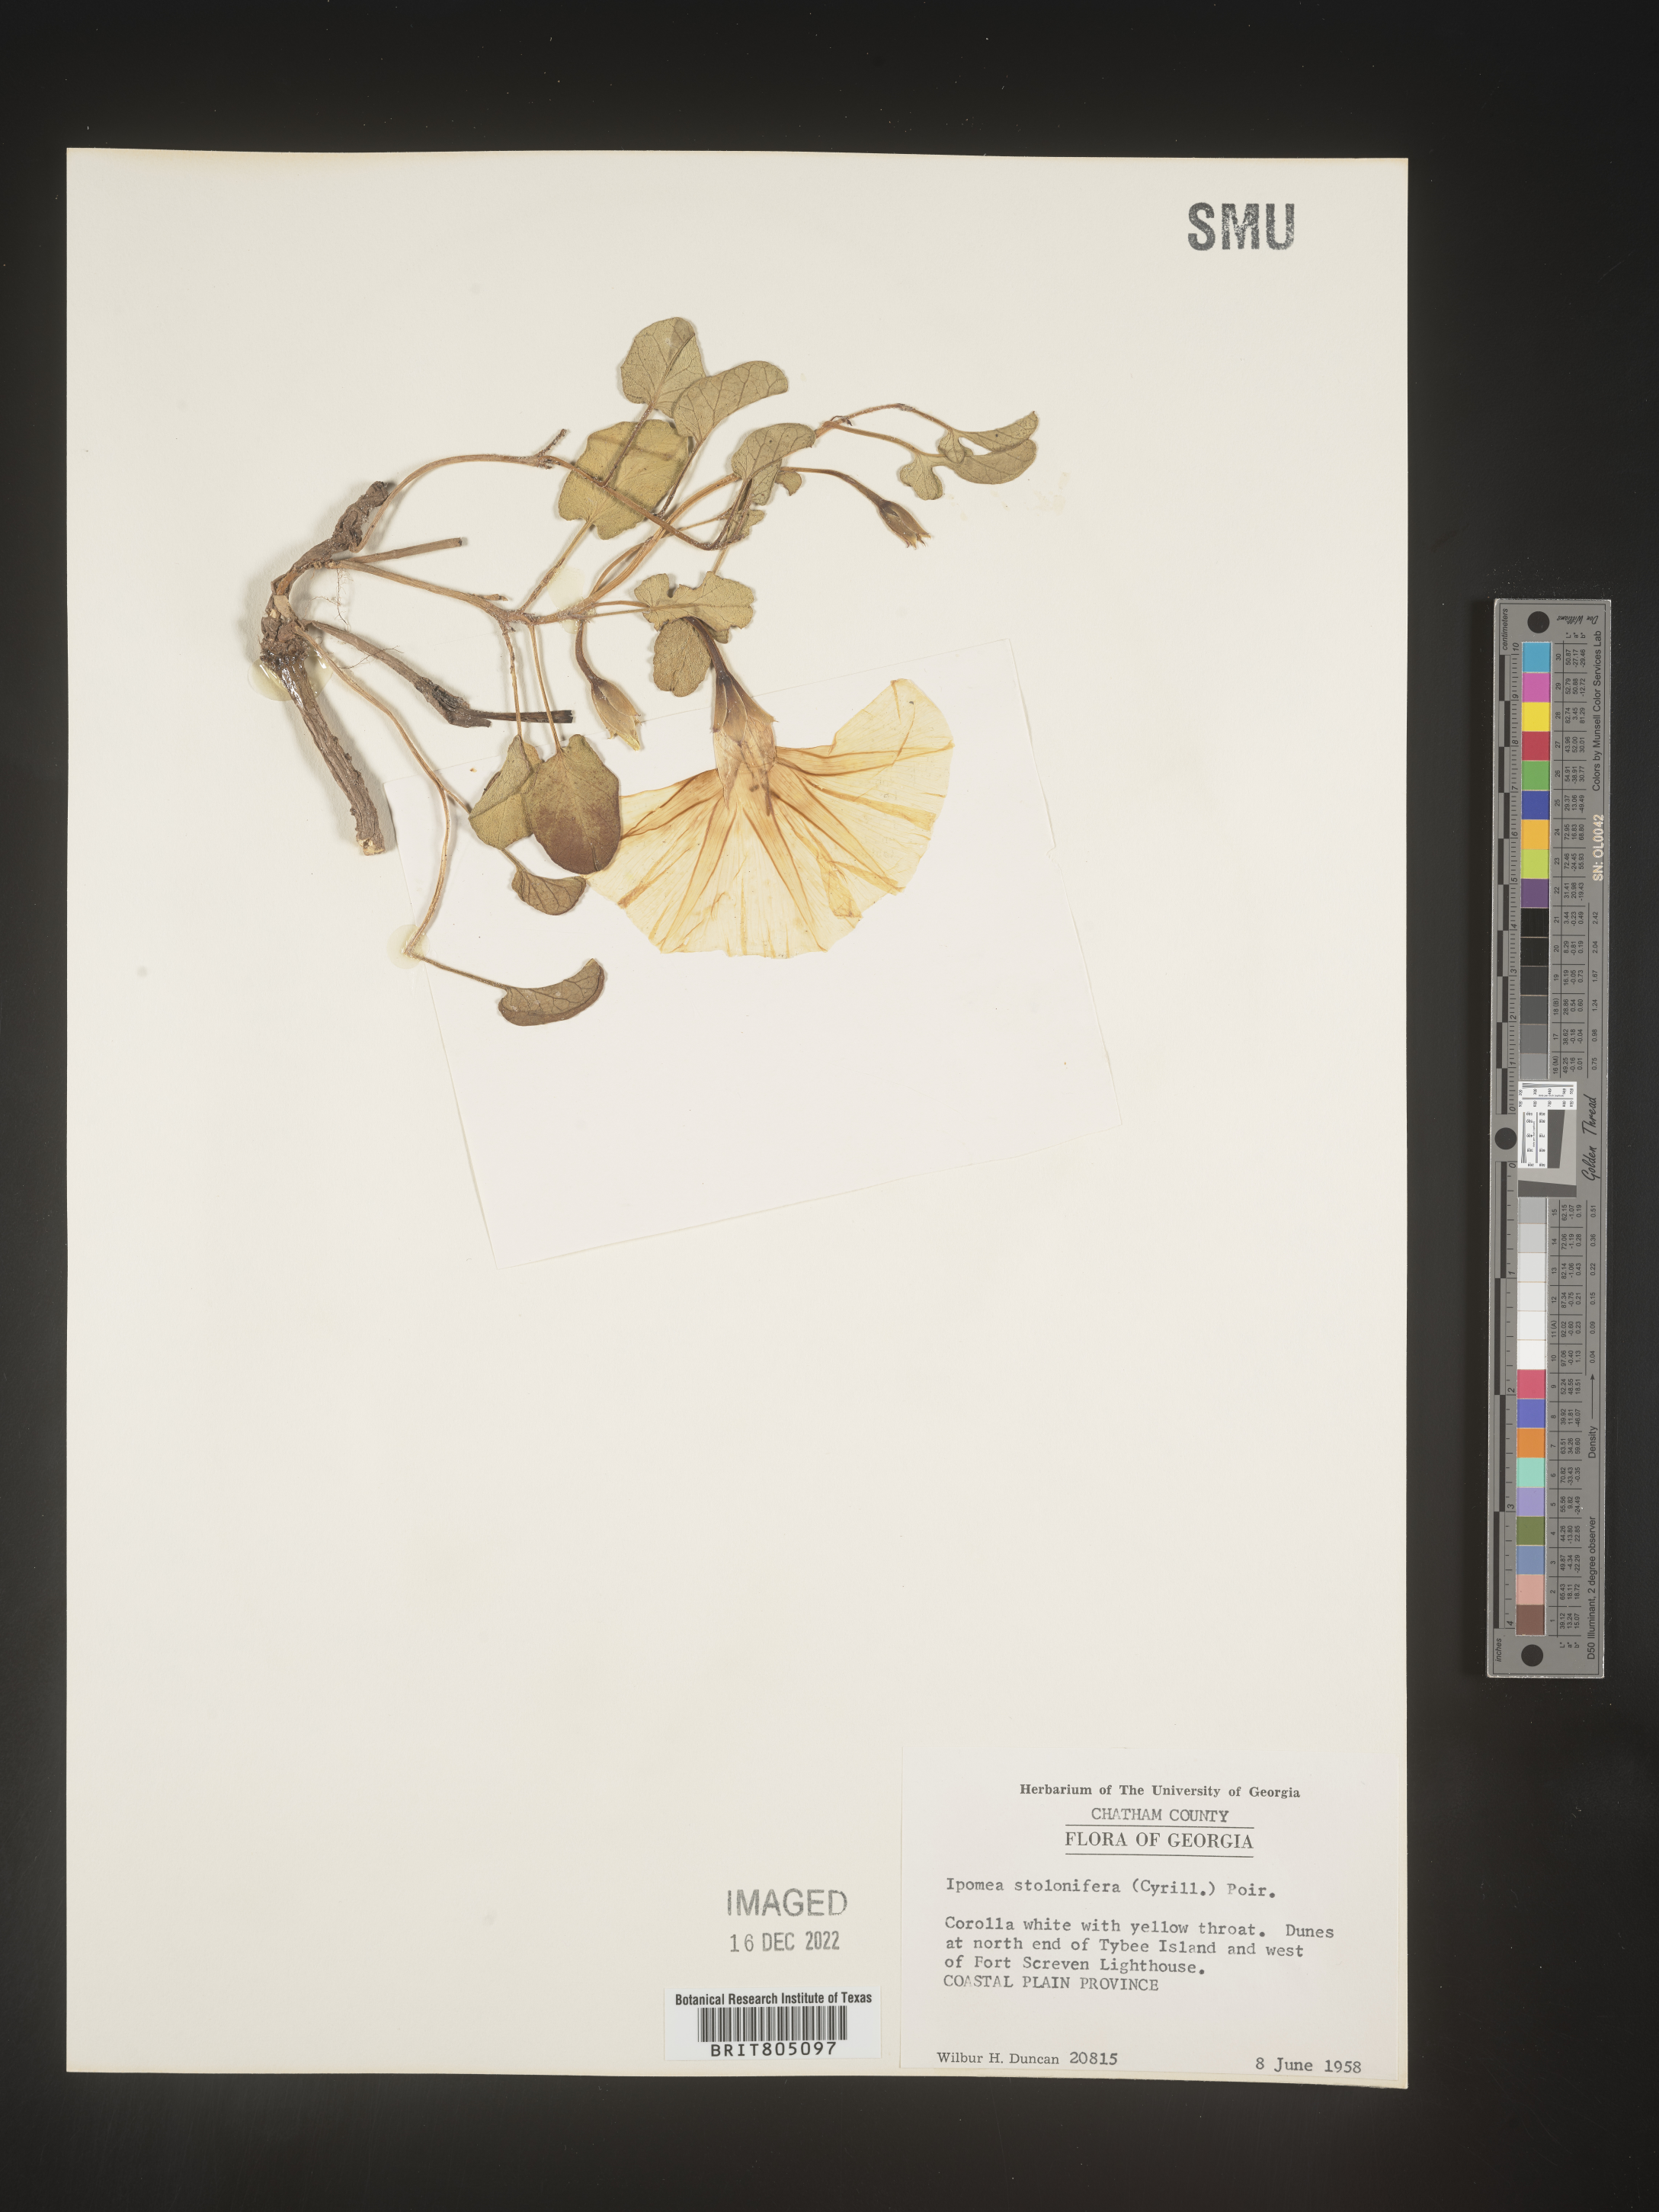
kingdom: Plantae
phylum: Tracheophyta
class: Magnoliopsida
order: Solanales
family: Convolvulaceae
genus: Ipomoea
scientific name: Ipomoea imperati
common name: Fiddle-leaf morning-glory
